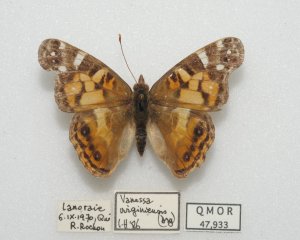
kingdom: Animalia
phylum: Arthropoda
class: Insecta
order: Lepidoptera
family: Nymphalidae
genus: Vanessa
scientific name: Vanessa virginiensis
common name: American Lady
